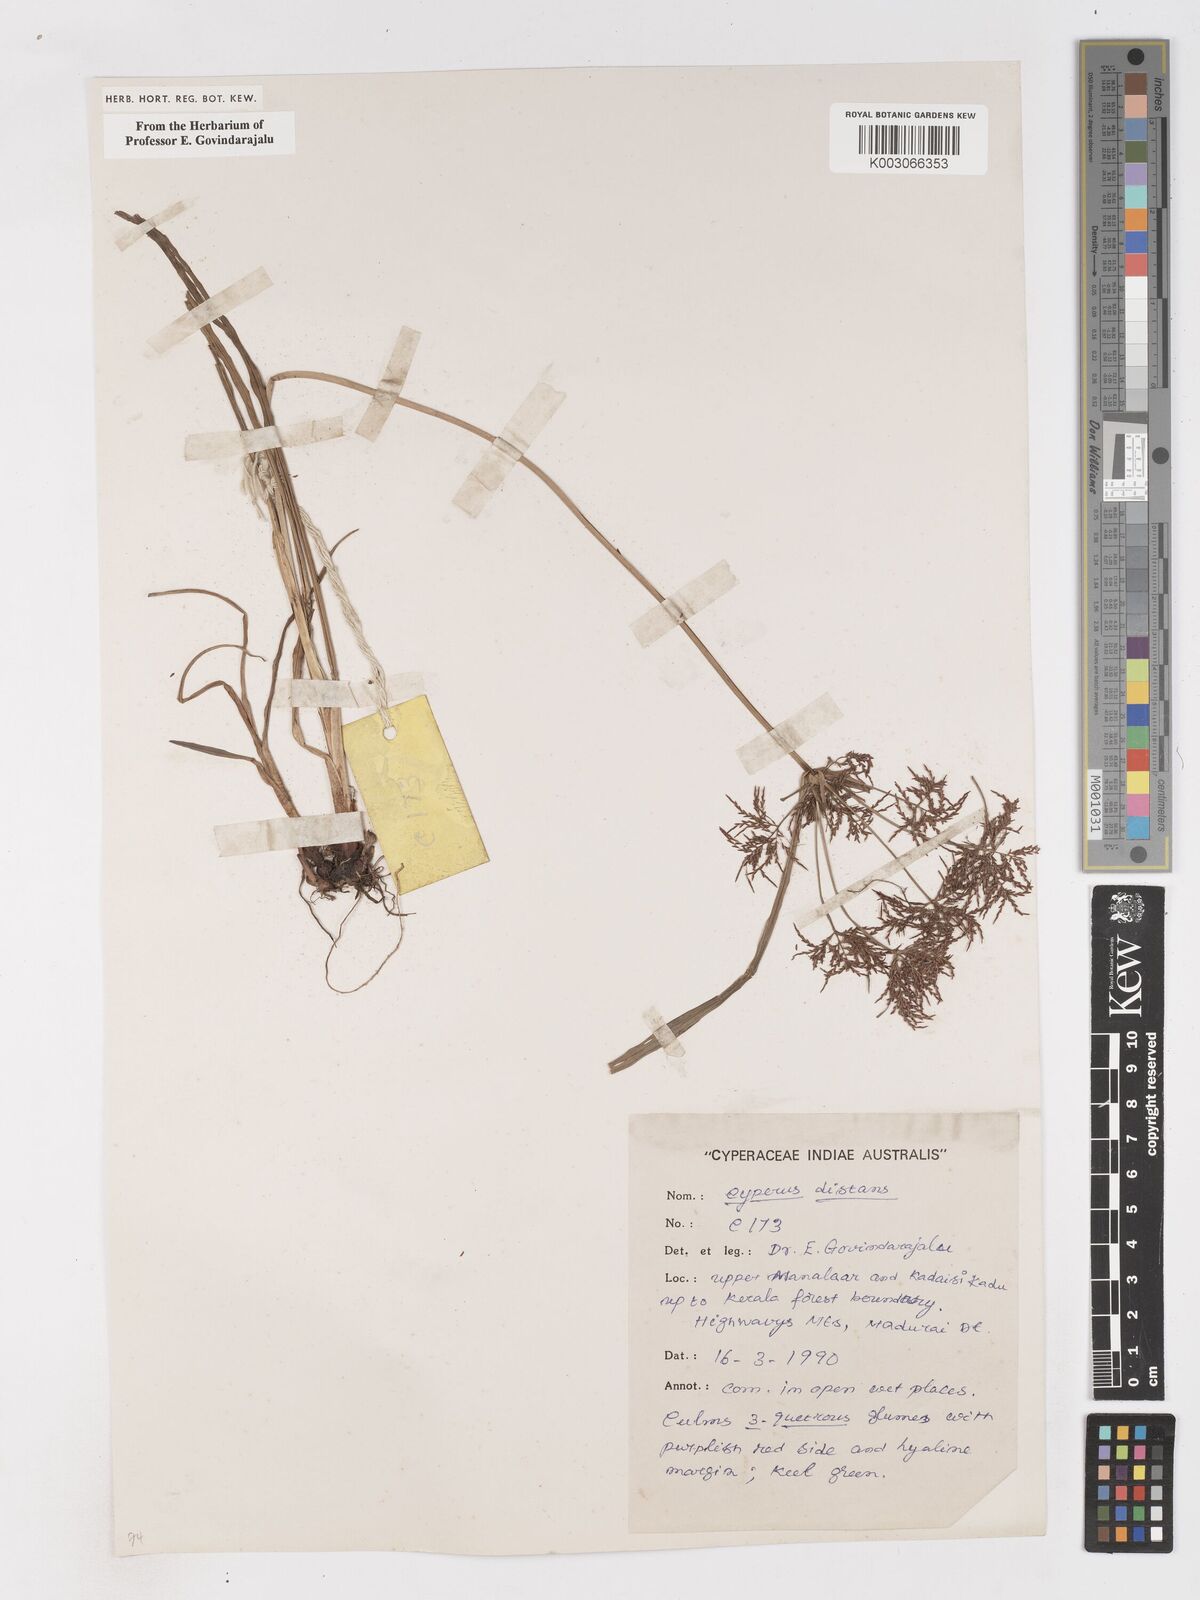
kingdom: Plantae
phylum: Tracheophyta
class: Liliopsida
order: Poales
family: Cyperaceae
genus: Cyperus
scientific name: Cyperus distans
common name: Slender cyperus
